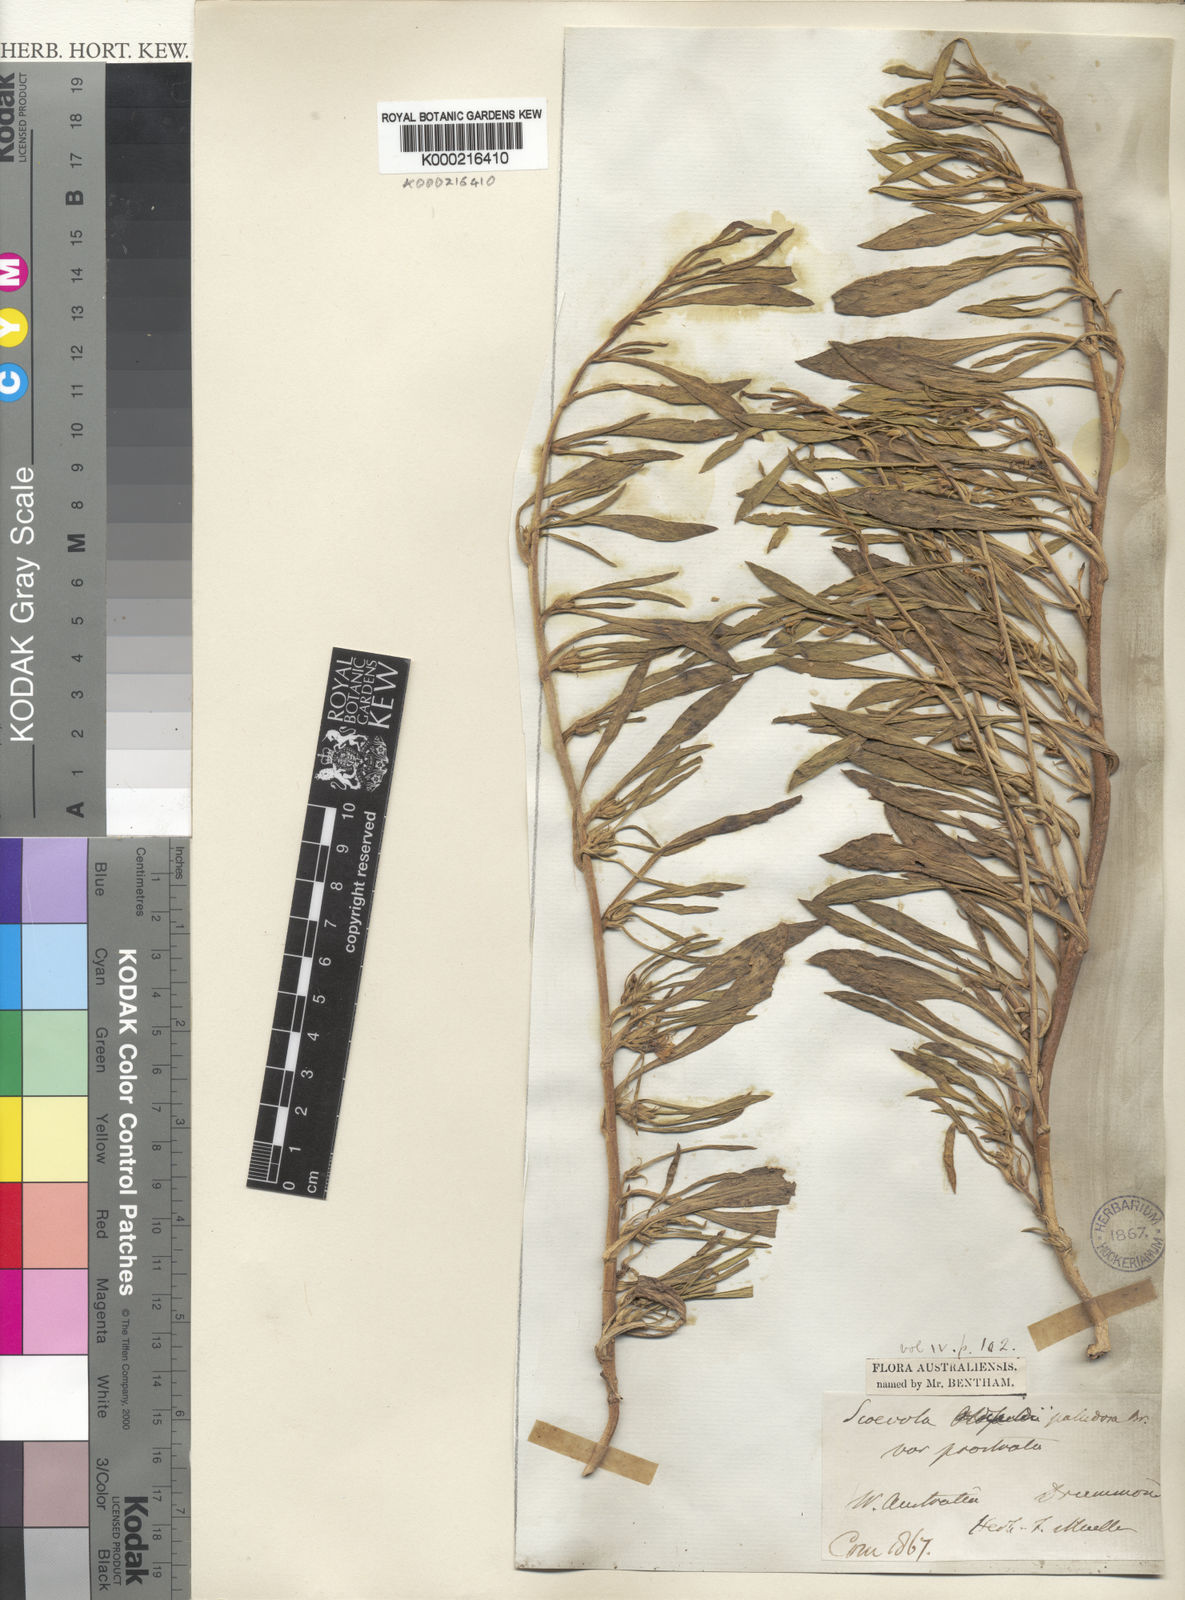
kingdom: Plantae
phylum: Tracheophyta
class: Magnoliopsida
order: Asterales
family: Goodeniaceae
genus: Scaevola
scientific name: Scaevola
